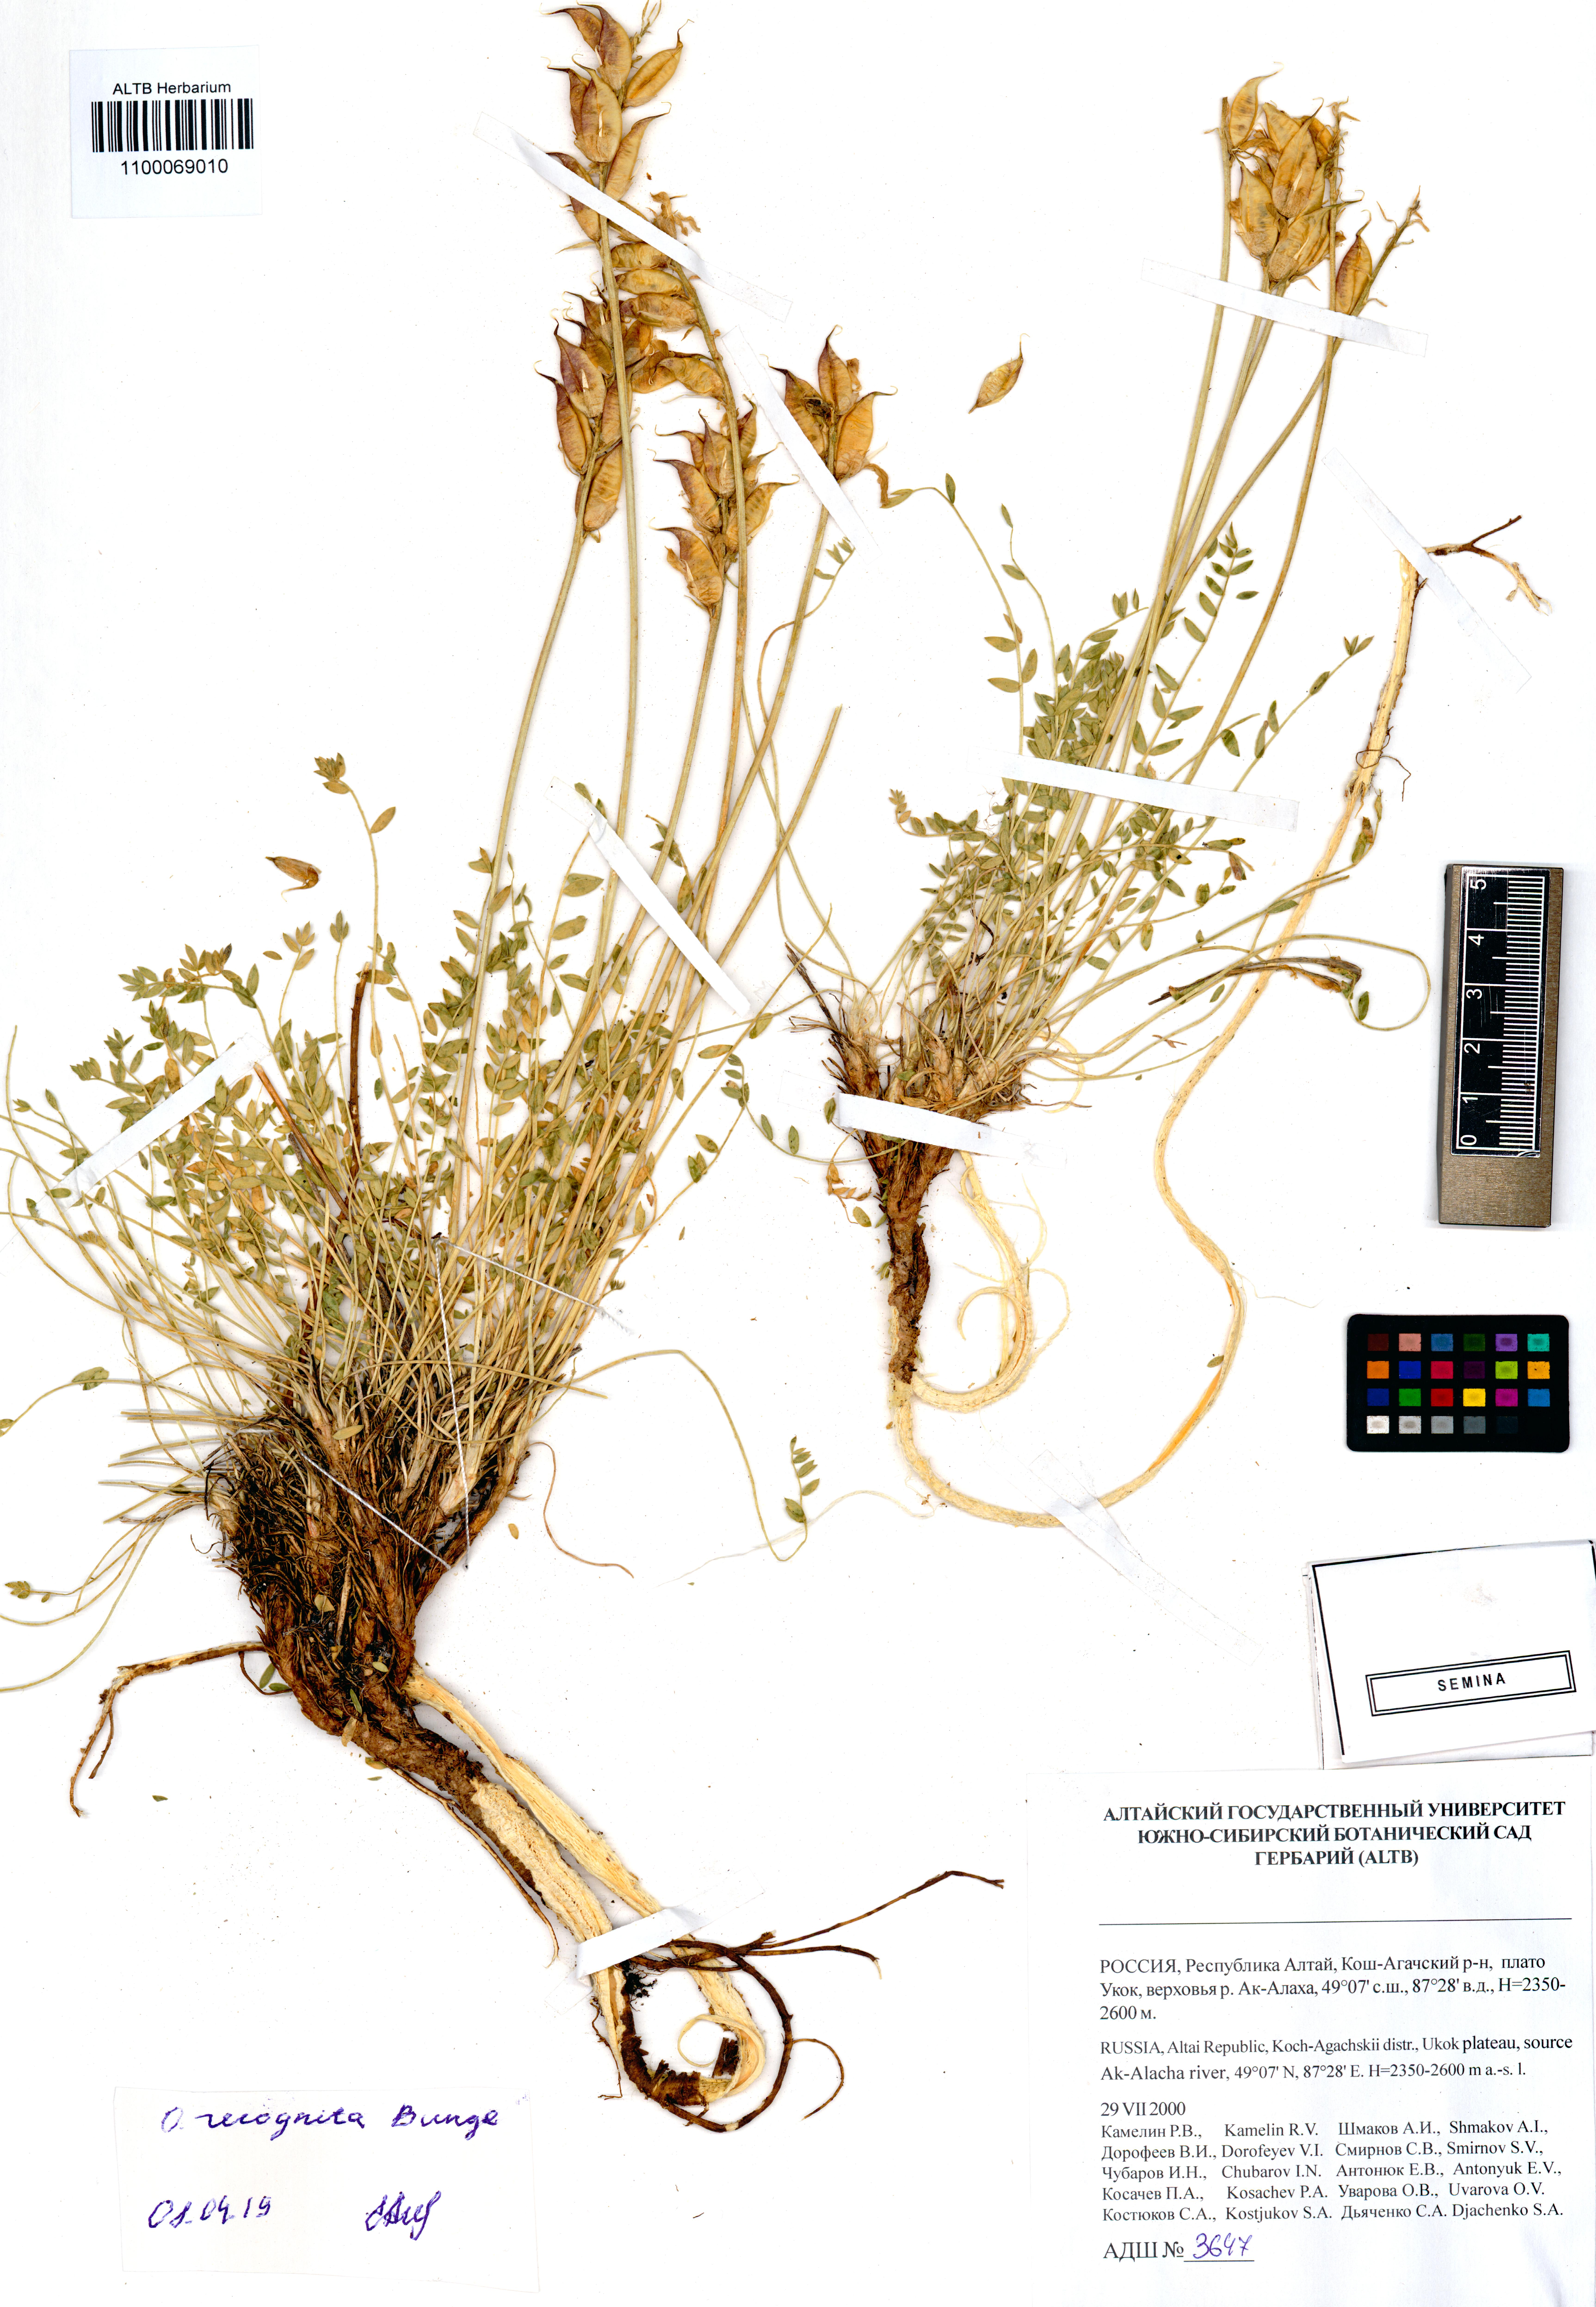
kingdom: Plantae
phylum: Tracheophyta
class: Magnoliopsida
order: Fabales
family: Fabaceae
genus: Oxytropis
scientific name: Oxytropis recognita
